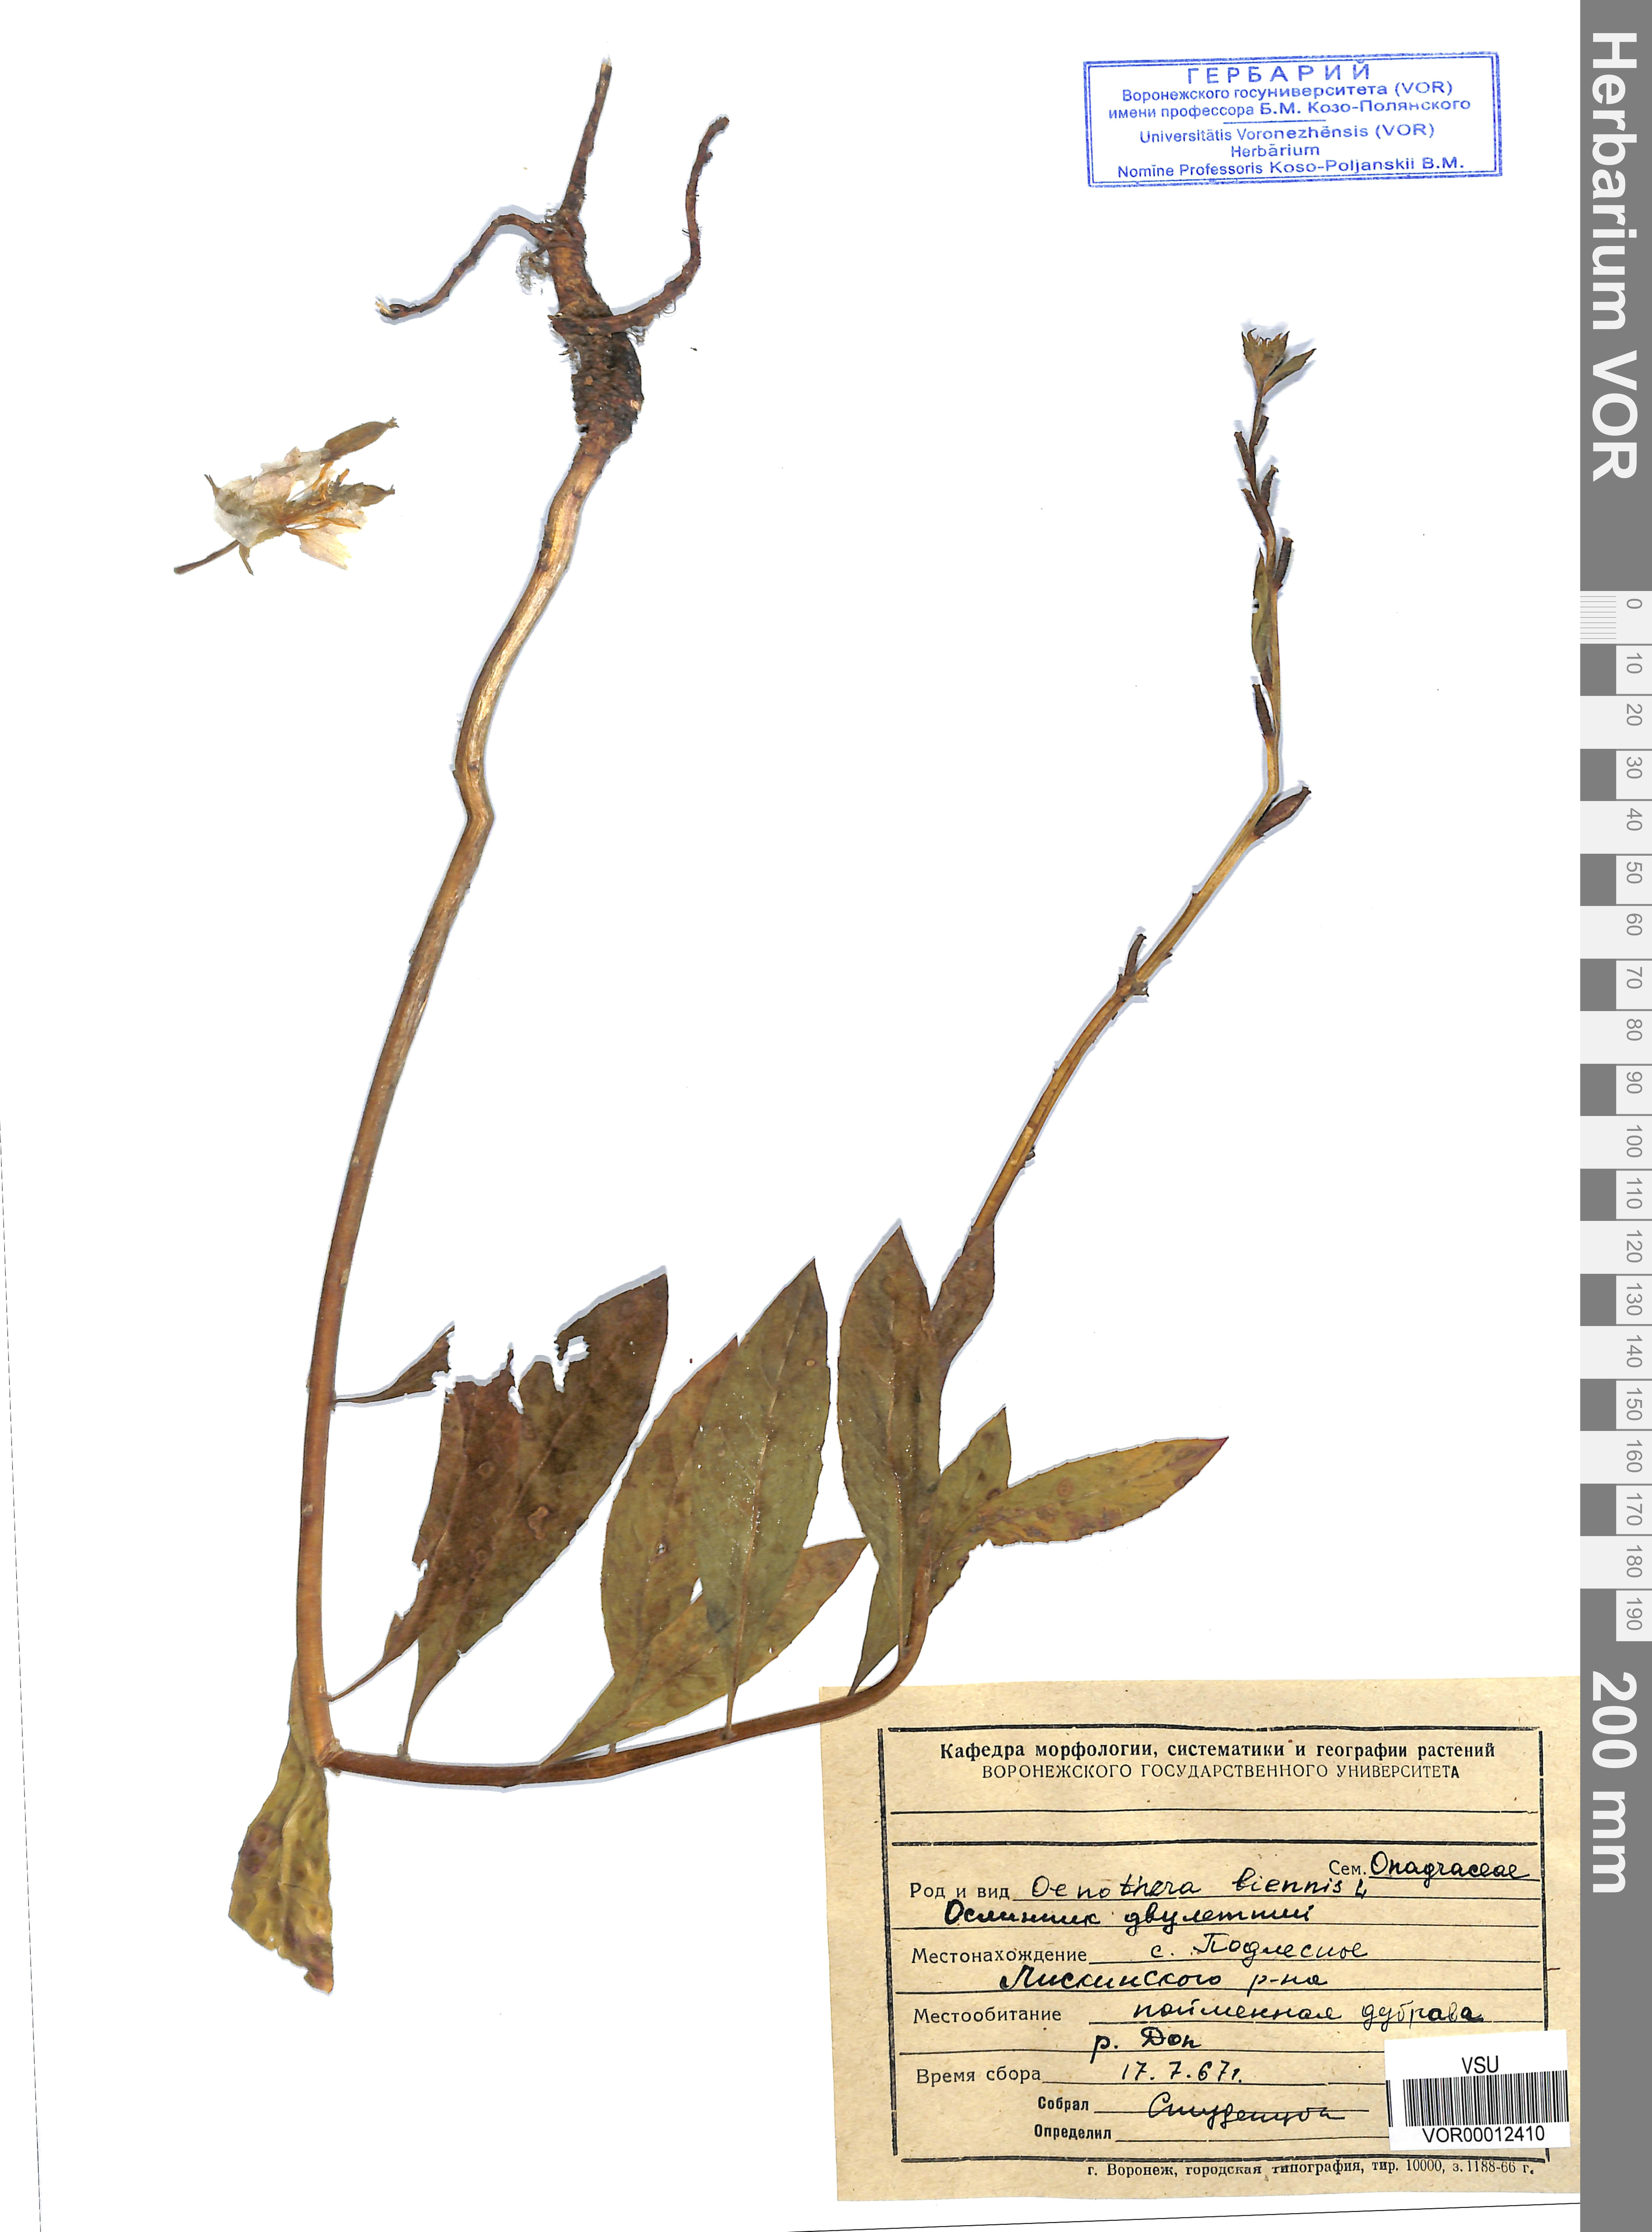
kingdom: Plantae
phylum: Tracheophyta
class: Magnoliopsida
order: Myrtales
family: Onagraceae
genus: Oenothera
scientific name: Oenothera biennis
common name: Common evening-primrose
